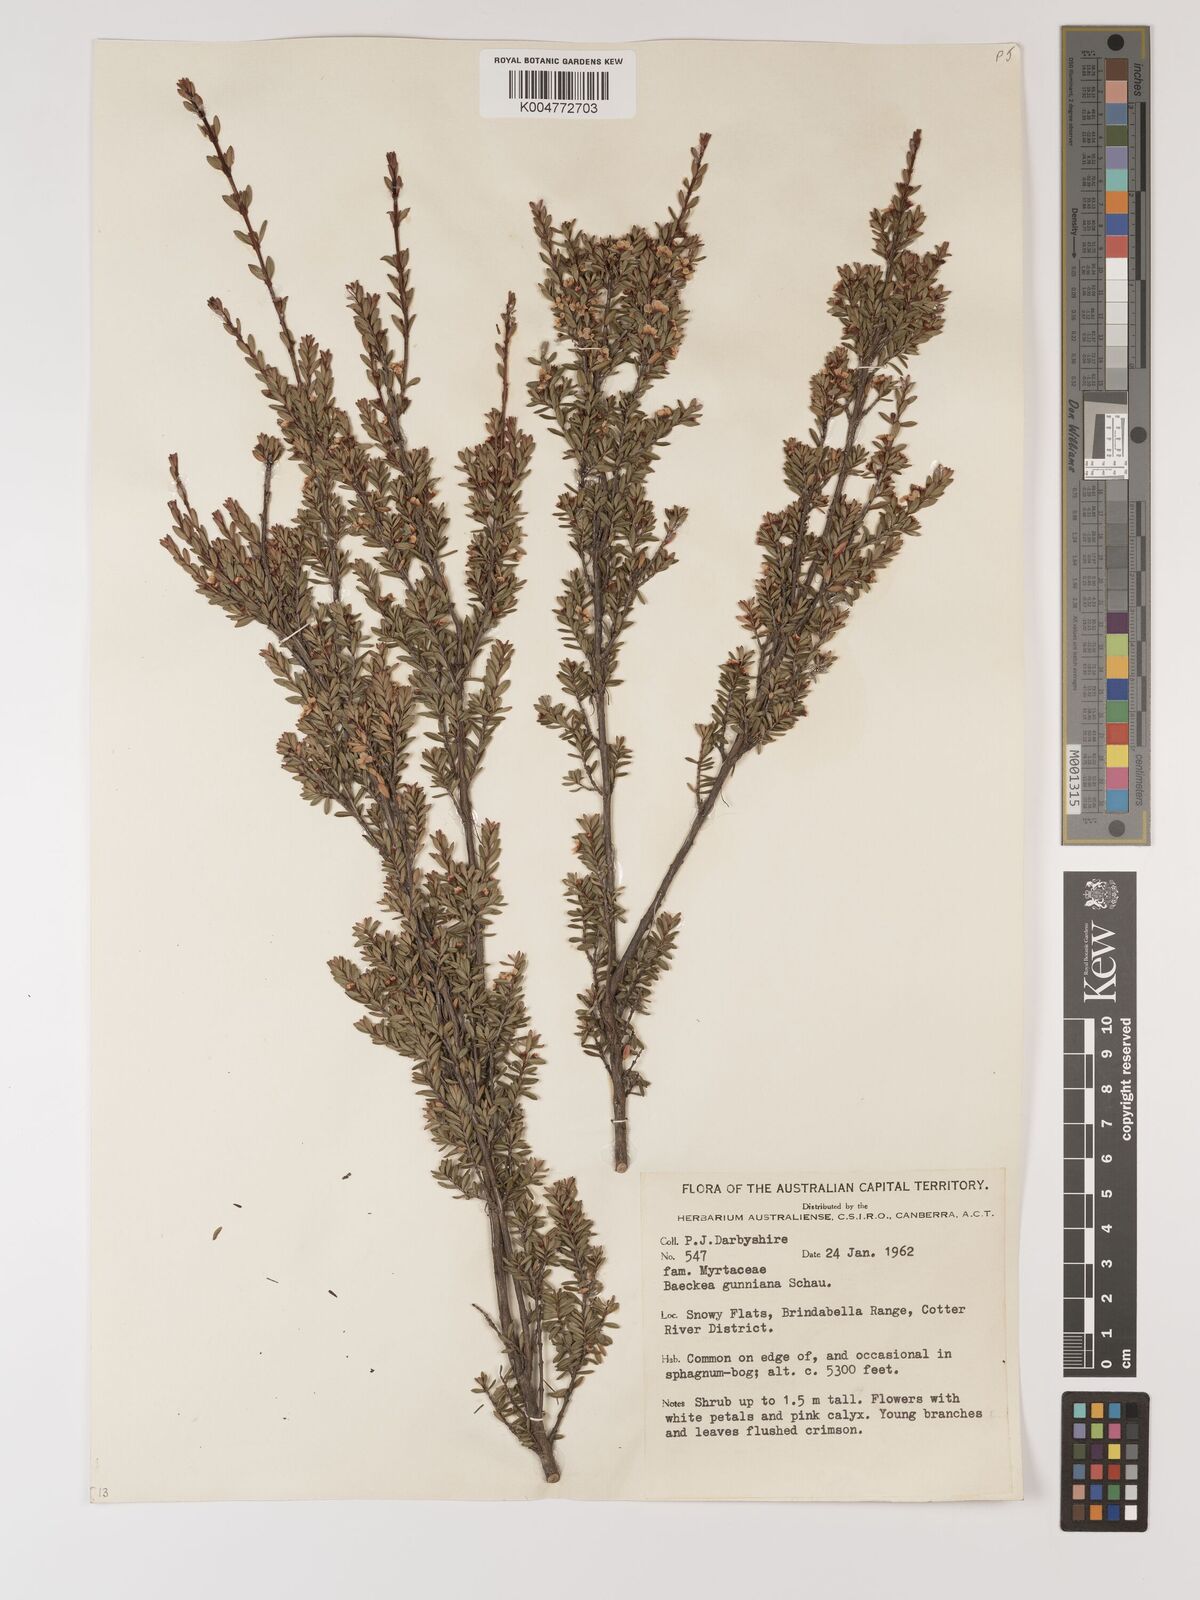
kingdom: Plantae
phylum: Tracheophyta
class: Magnoliopsida
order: Myrtales
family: Myrtaceae
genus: Baeckea
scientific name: Baeckea gunniana
